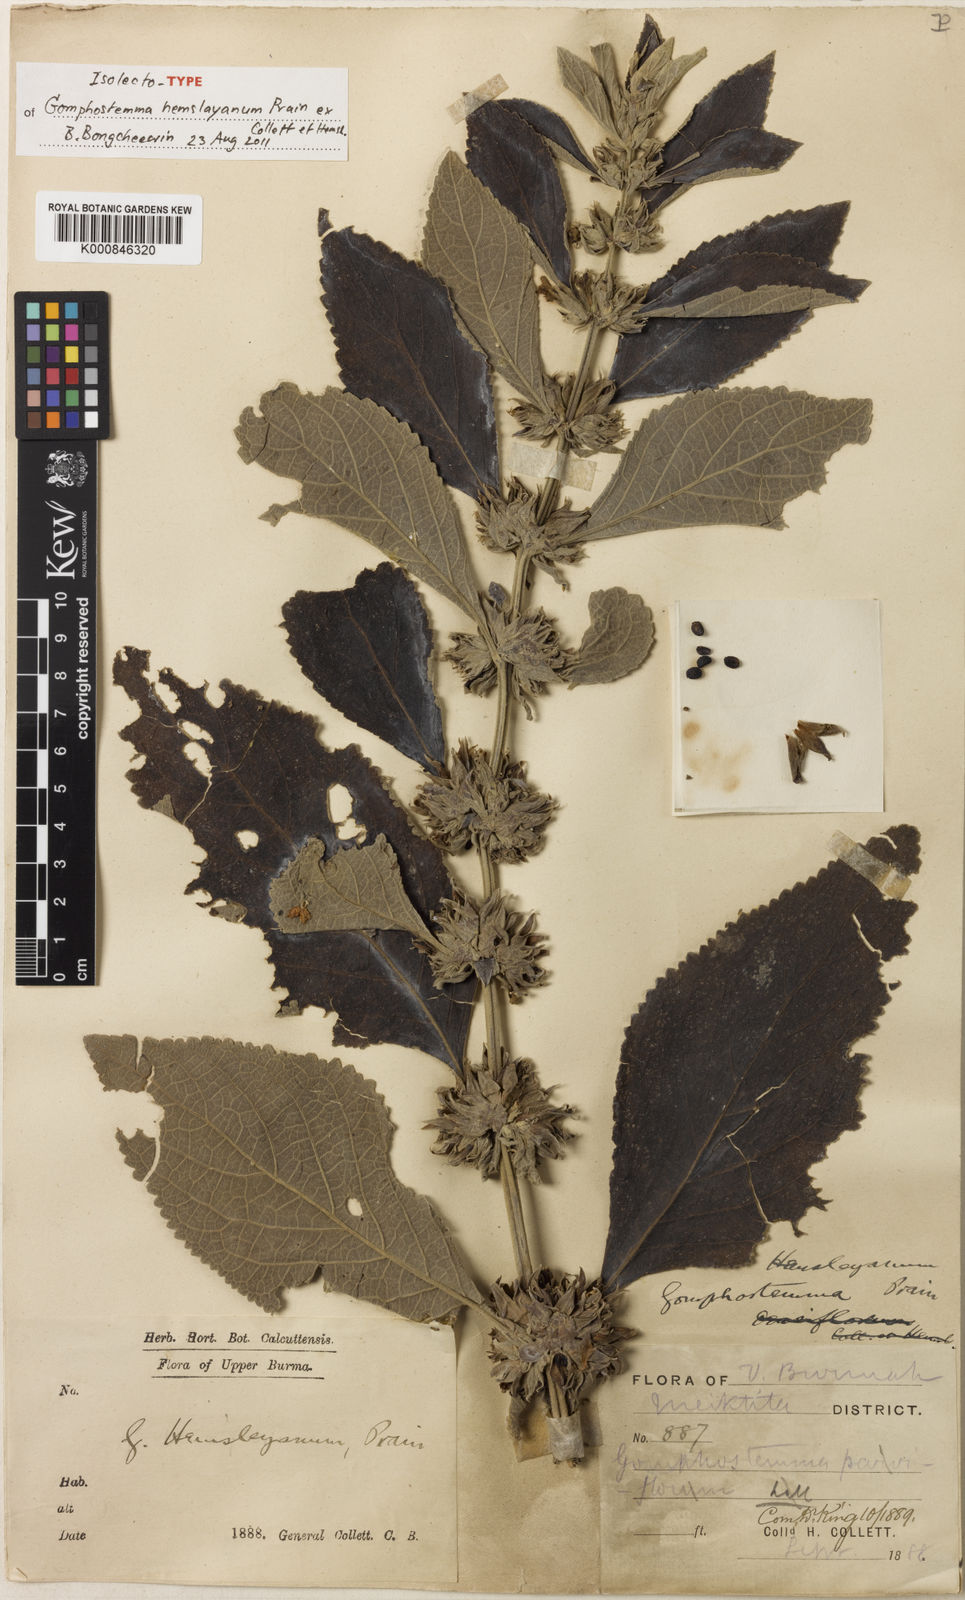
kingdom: Plantae
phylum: Tracheophyta
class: Magnoliopsida
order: Lamiales
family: Lamiaceae
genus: Gomphostemma
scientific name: Gomphostemma hemsleyanum
